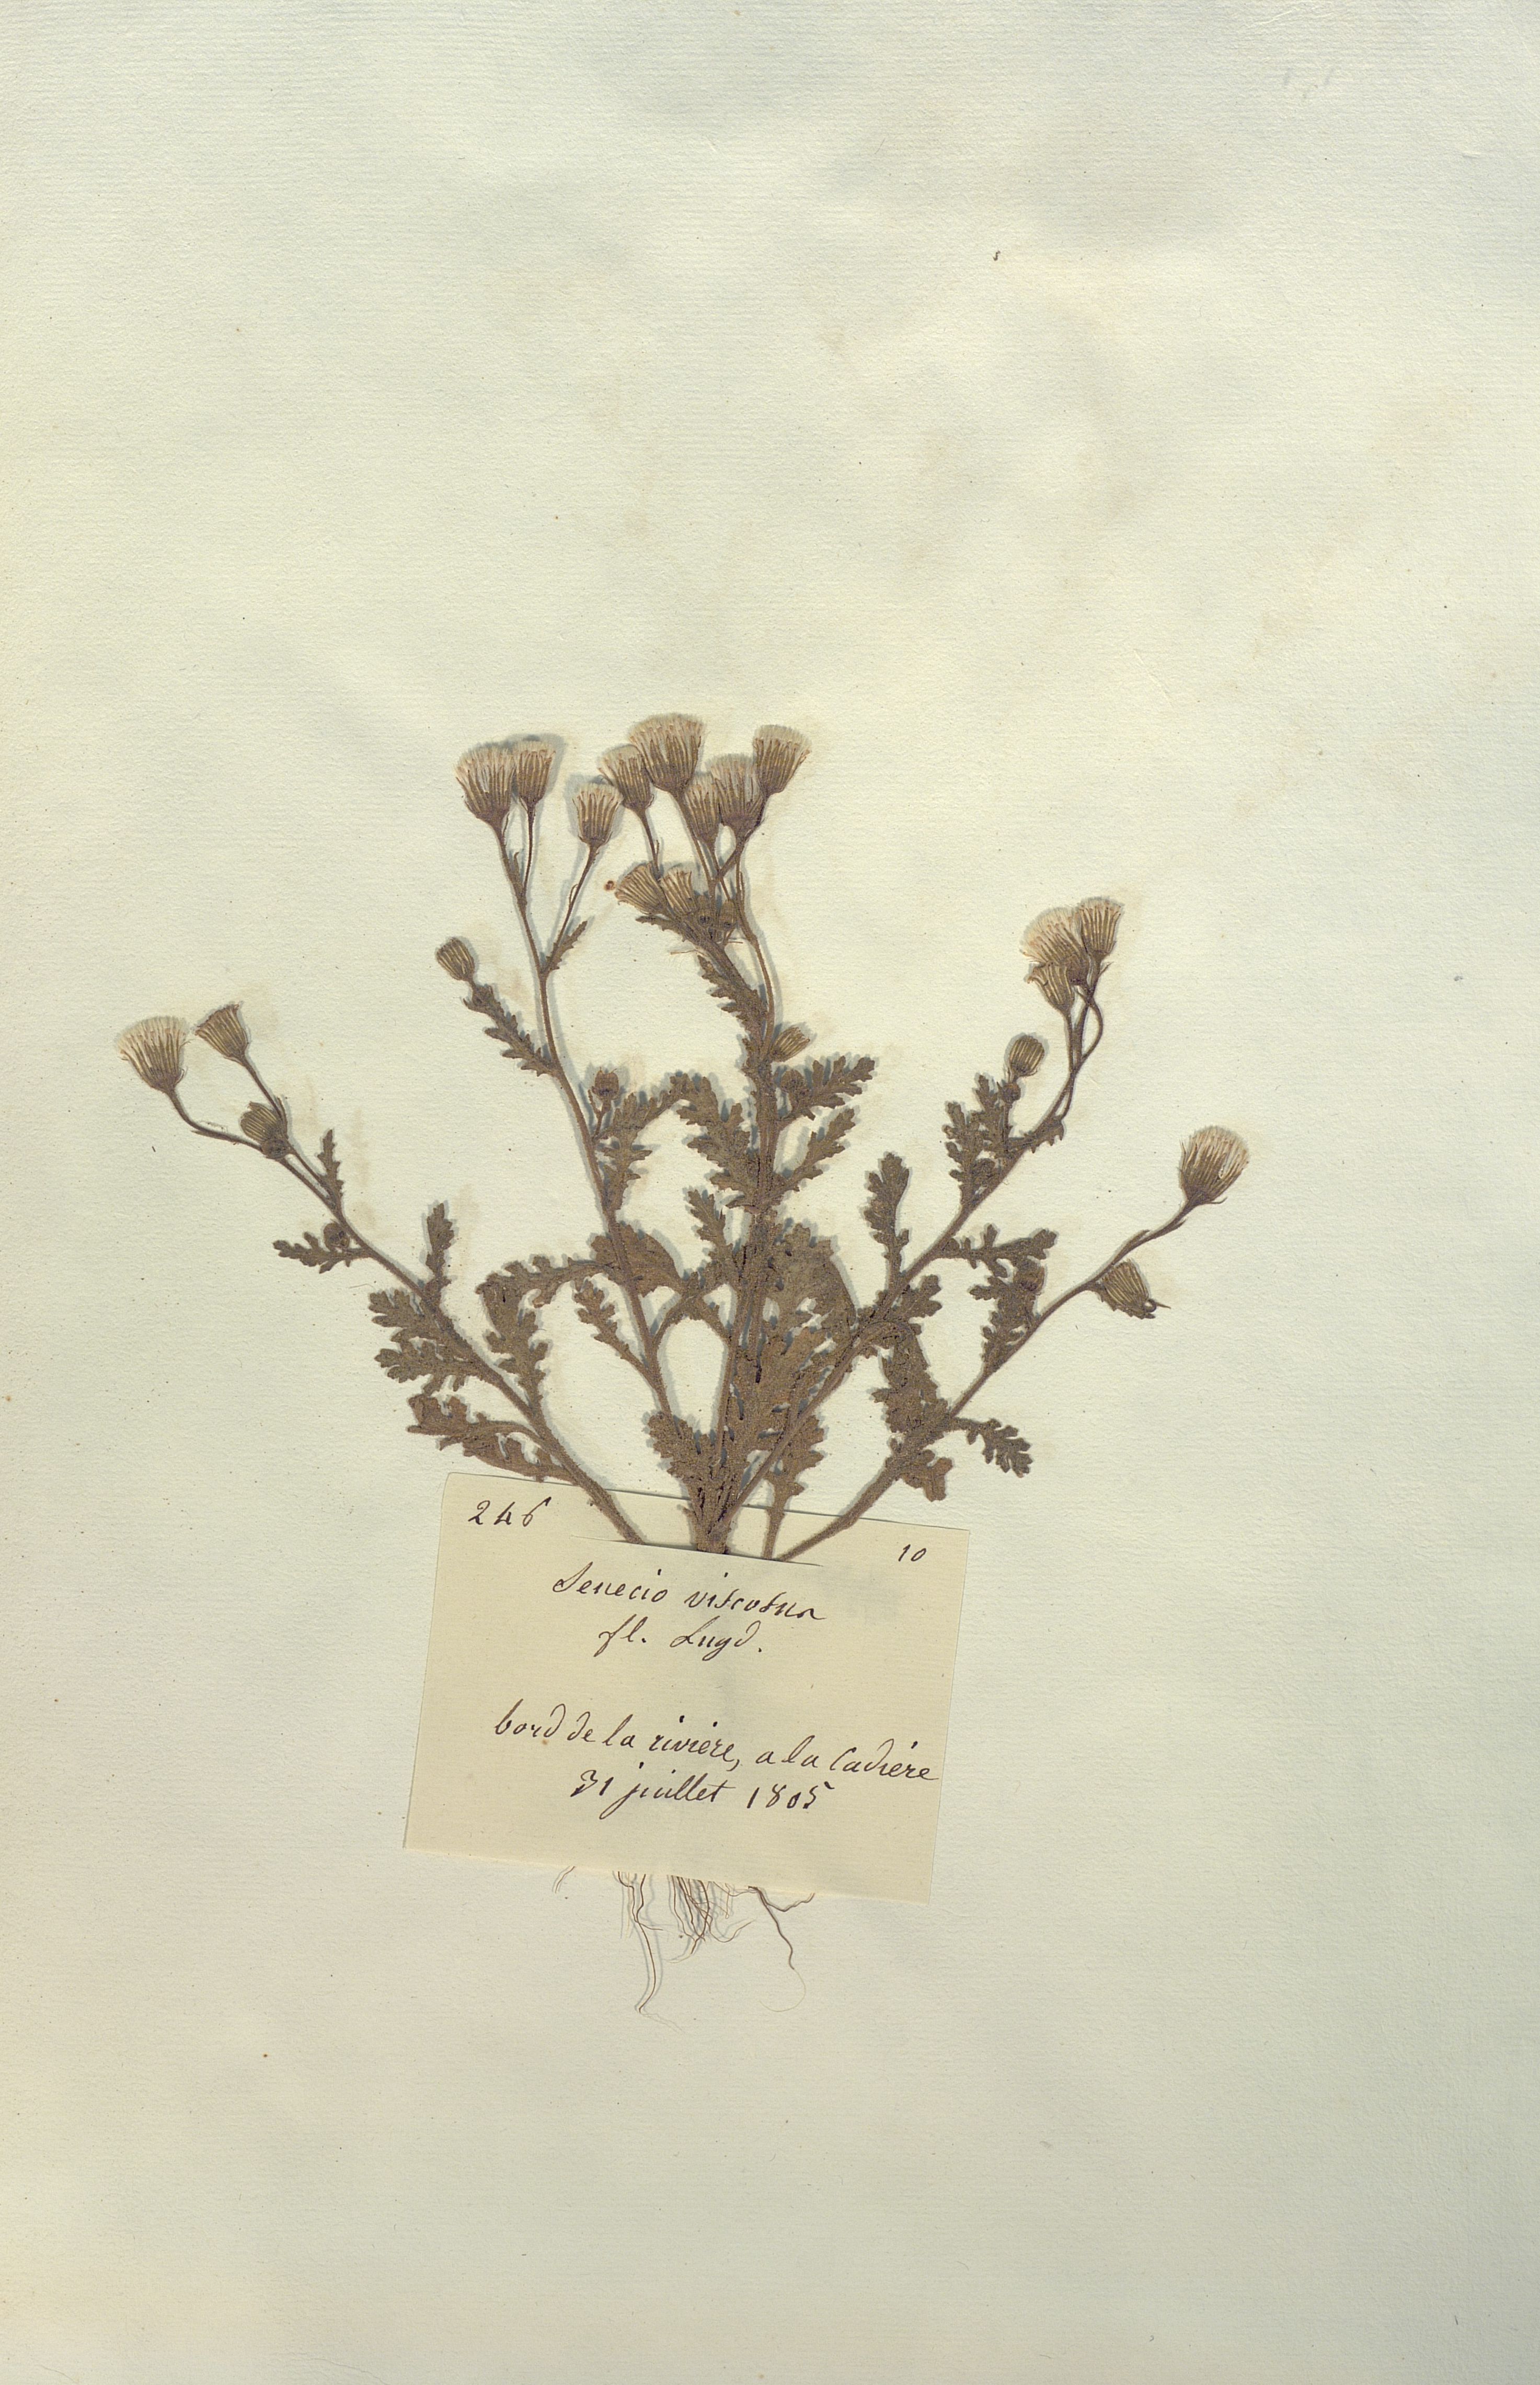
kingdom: Plantae
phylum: Tracheophyta
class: Magnoliopsida
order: Asterales
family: Asteraceae
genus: Senecio
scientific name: Senecio viscosus
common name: Sticky groundsel
